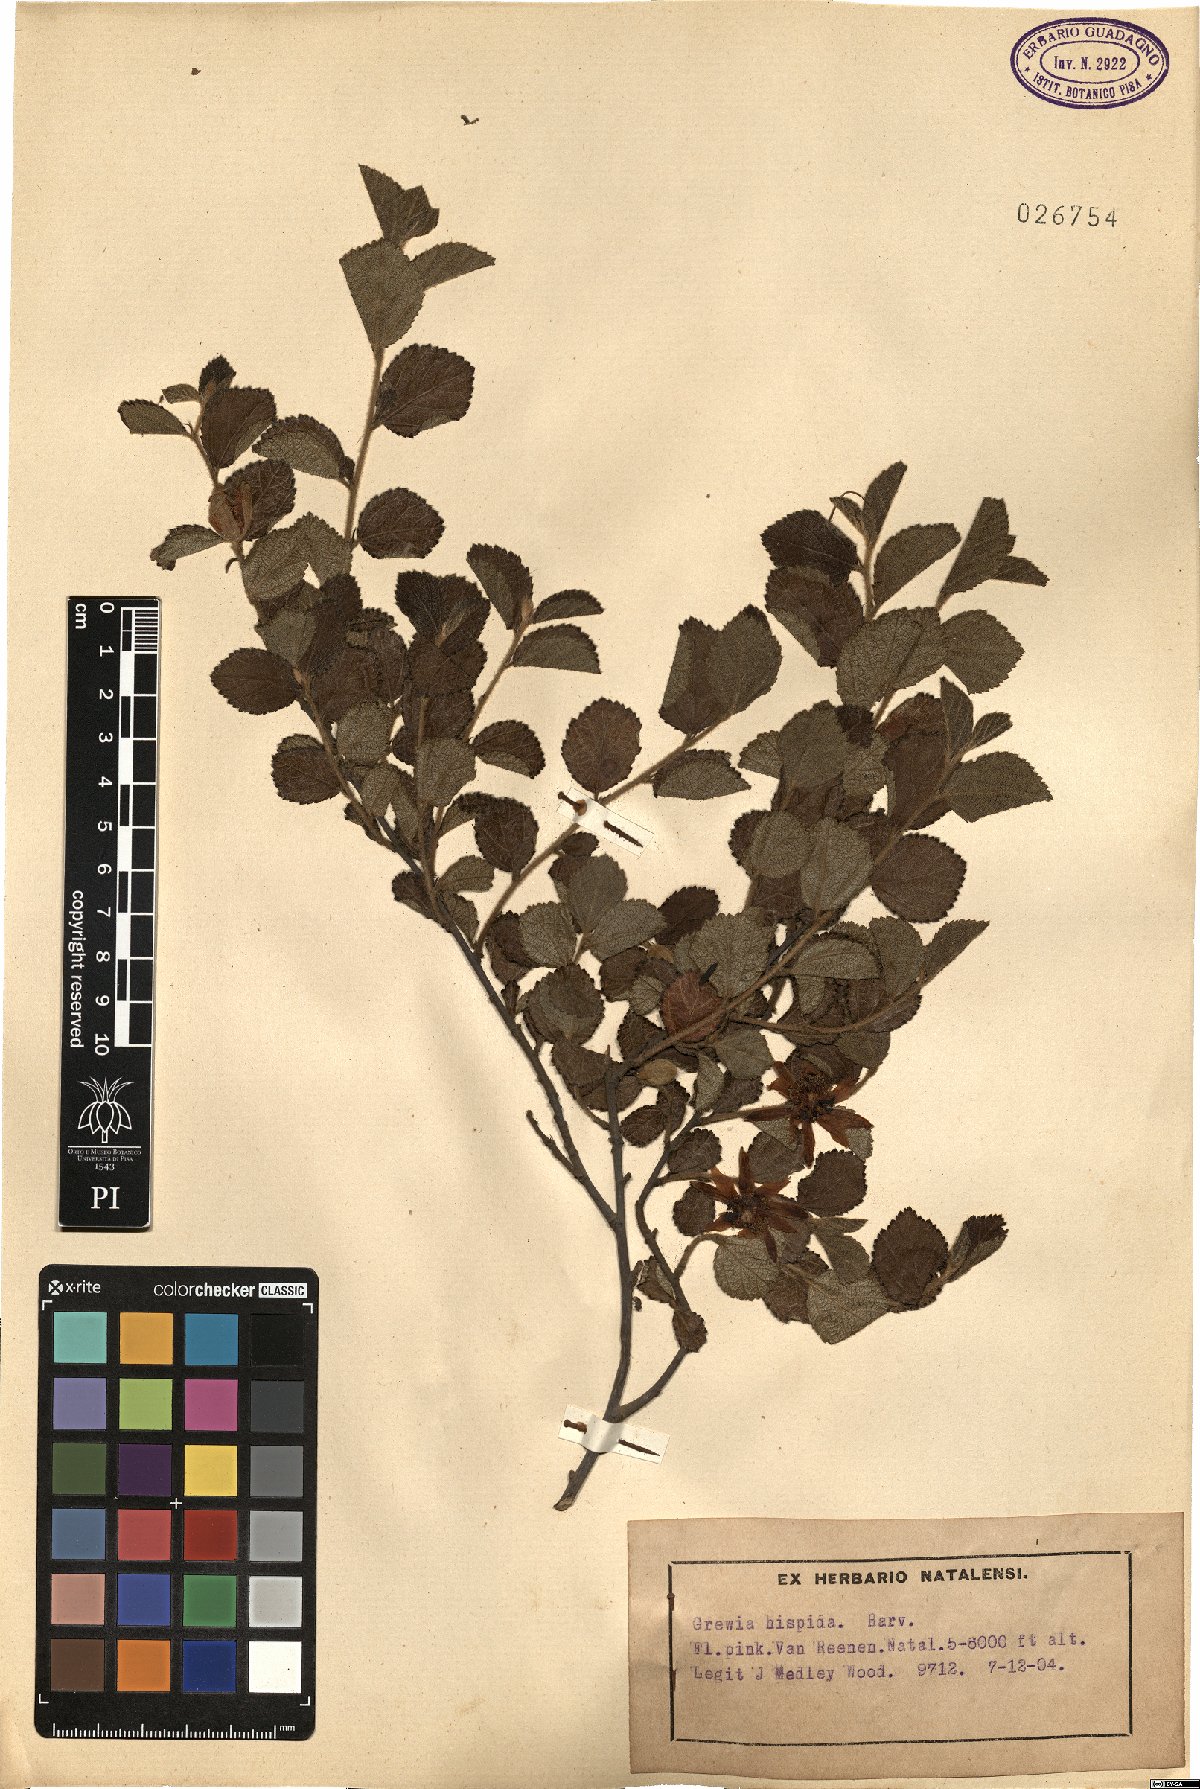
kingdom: Plantae
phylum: Tracheophyta
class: Magnoliopsida
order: Malvales
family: Malvaceae
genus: Grewia
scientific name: Grewia hispida
